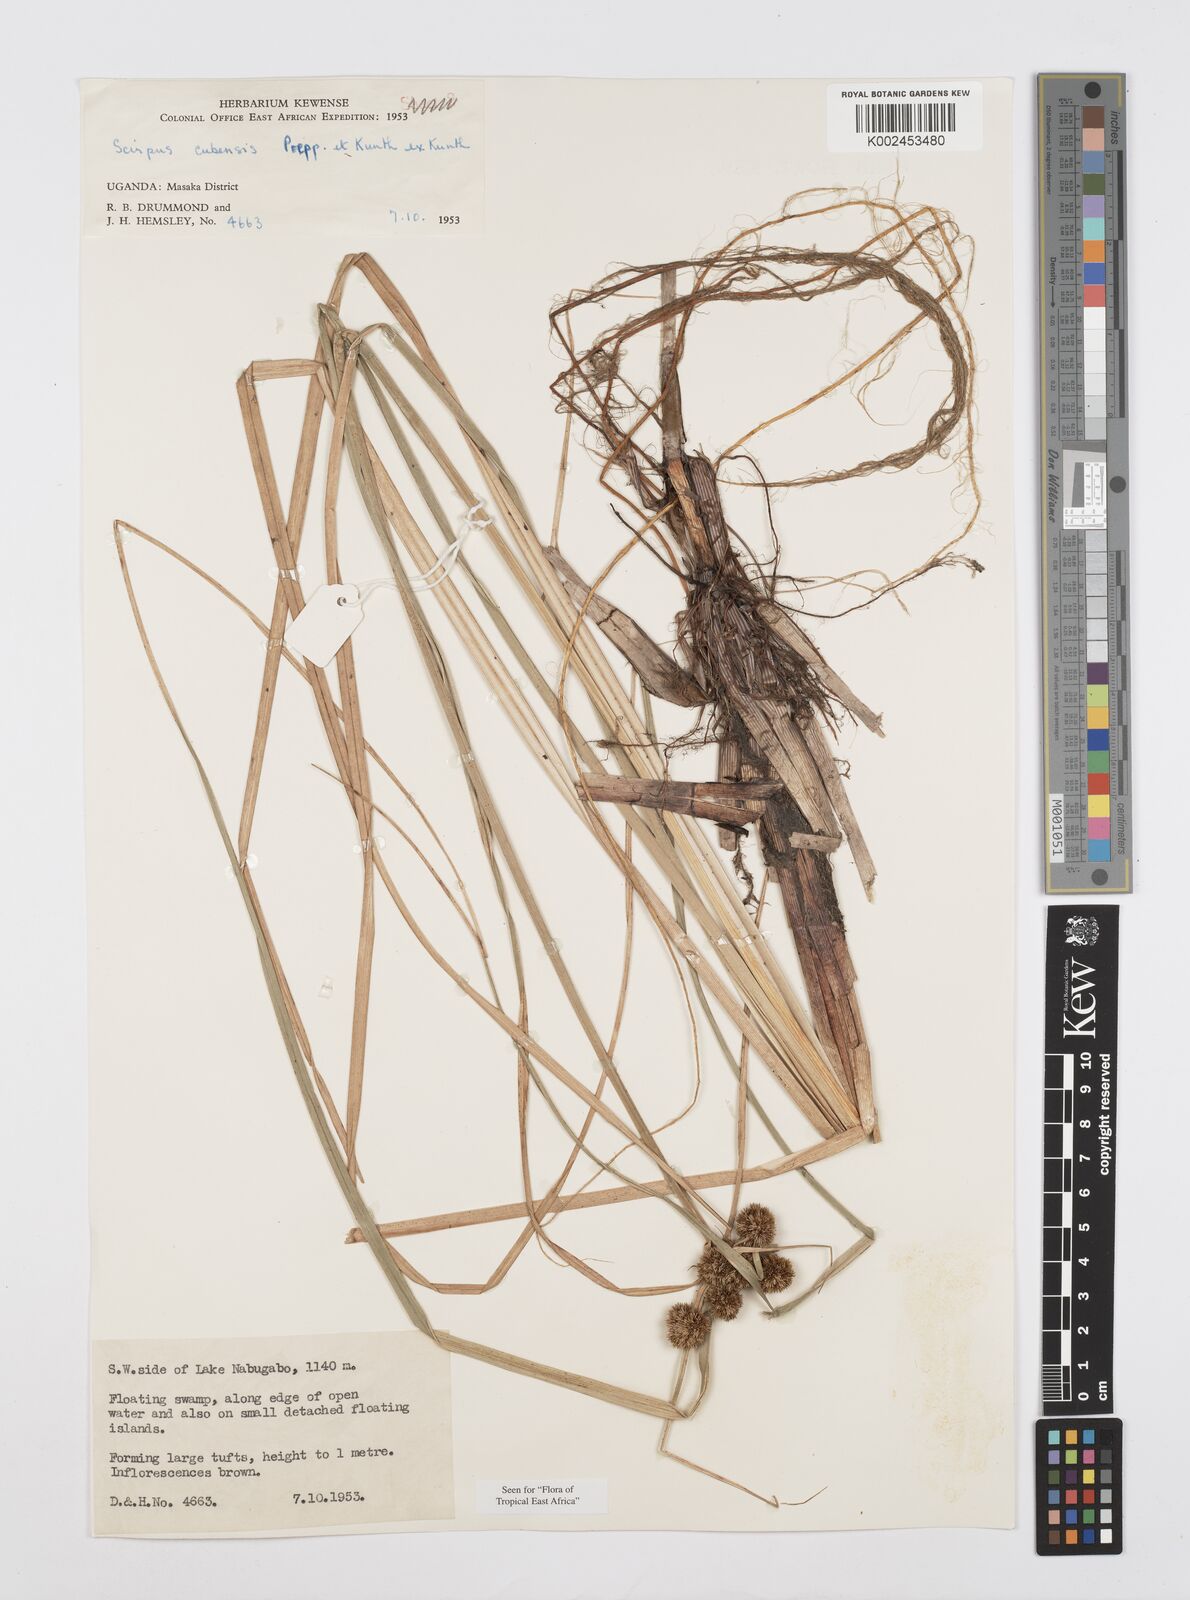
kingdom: Plantae
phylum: Tracheophyta
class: Liliopsida
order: Poales
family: Cyperaceae
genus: Cyperus
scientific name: Cyperus elegans
